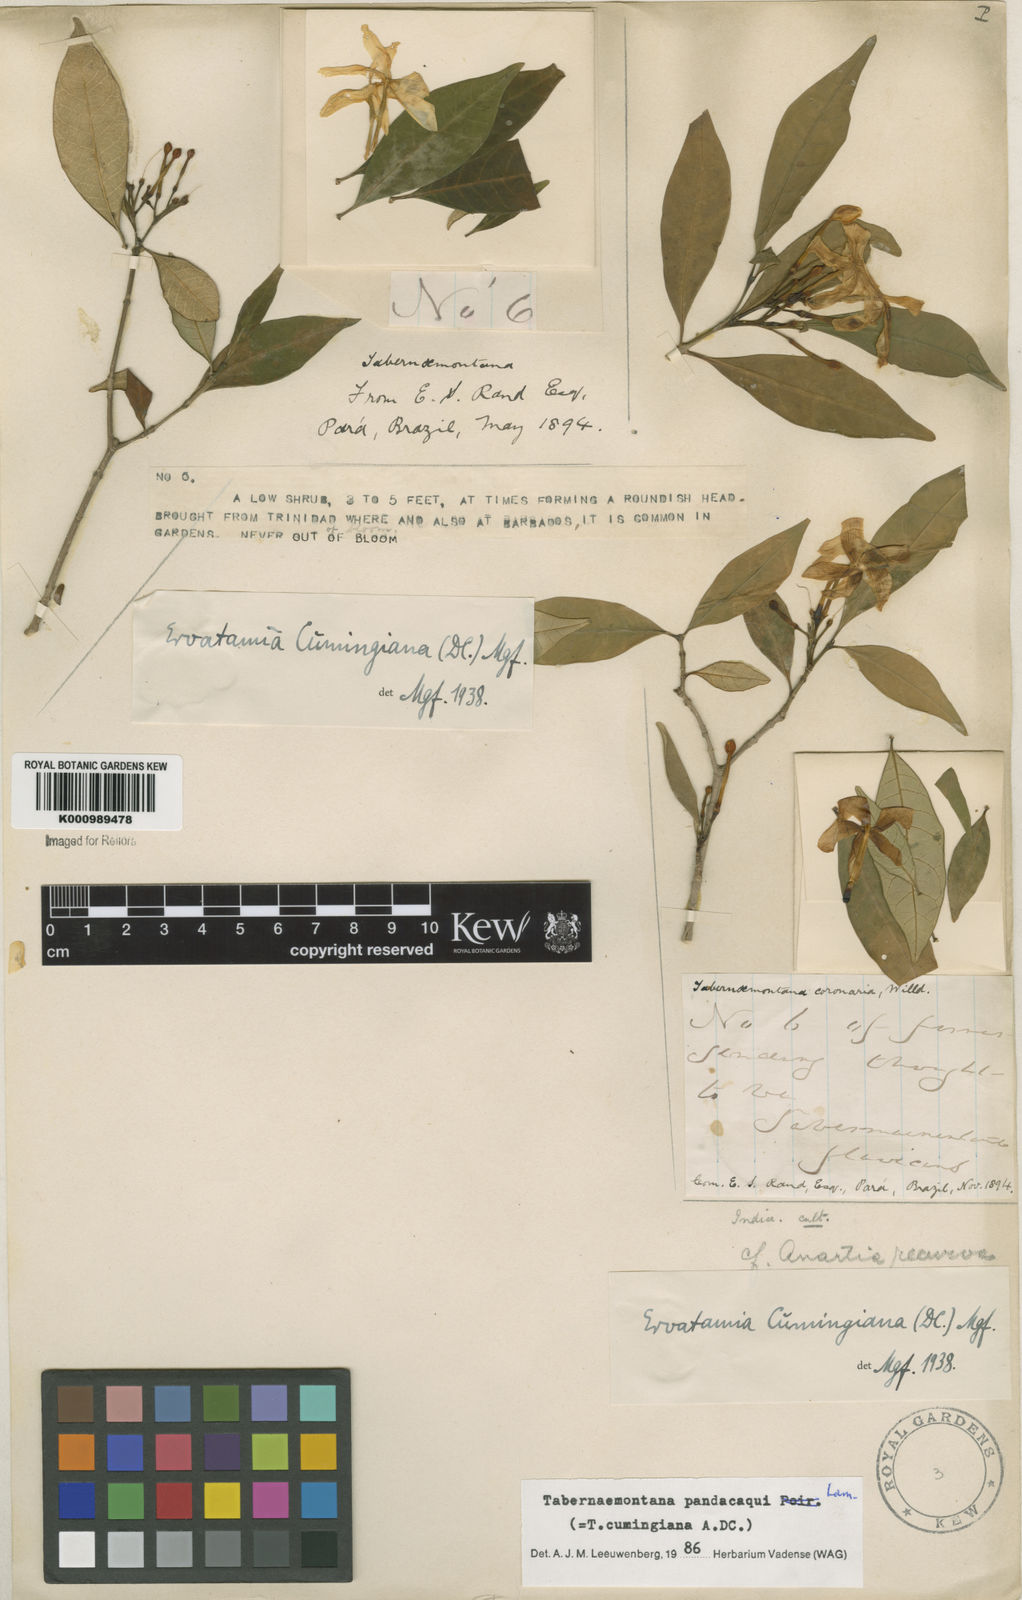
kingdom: Plantae
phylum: Tracheophyta
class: Magnoliopsida
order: Gentianales
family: Apocynaceae
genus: Tabernaemontana
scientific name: Tabernaemontana
